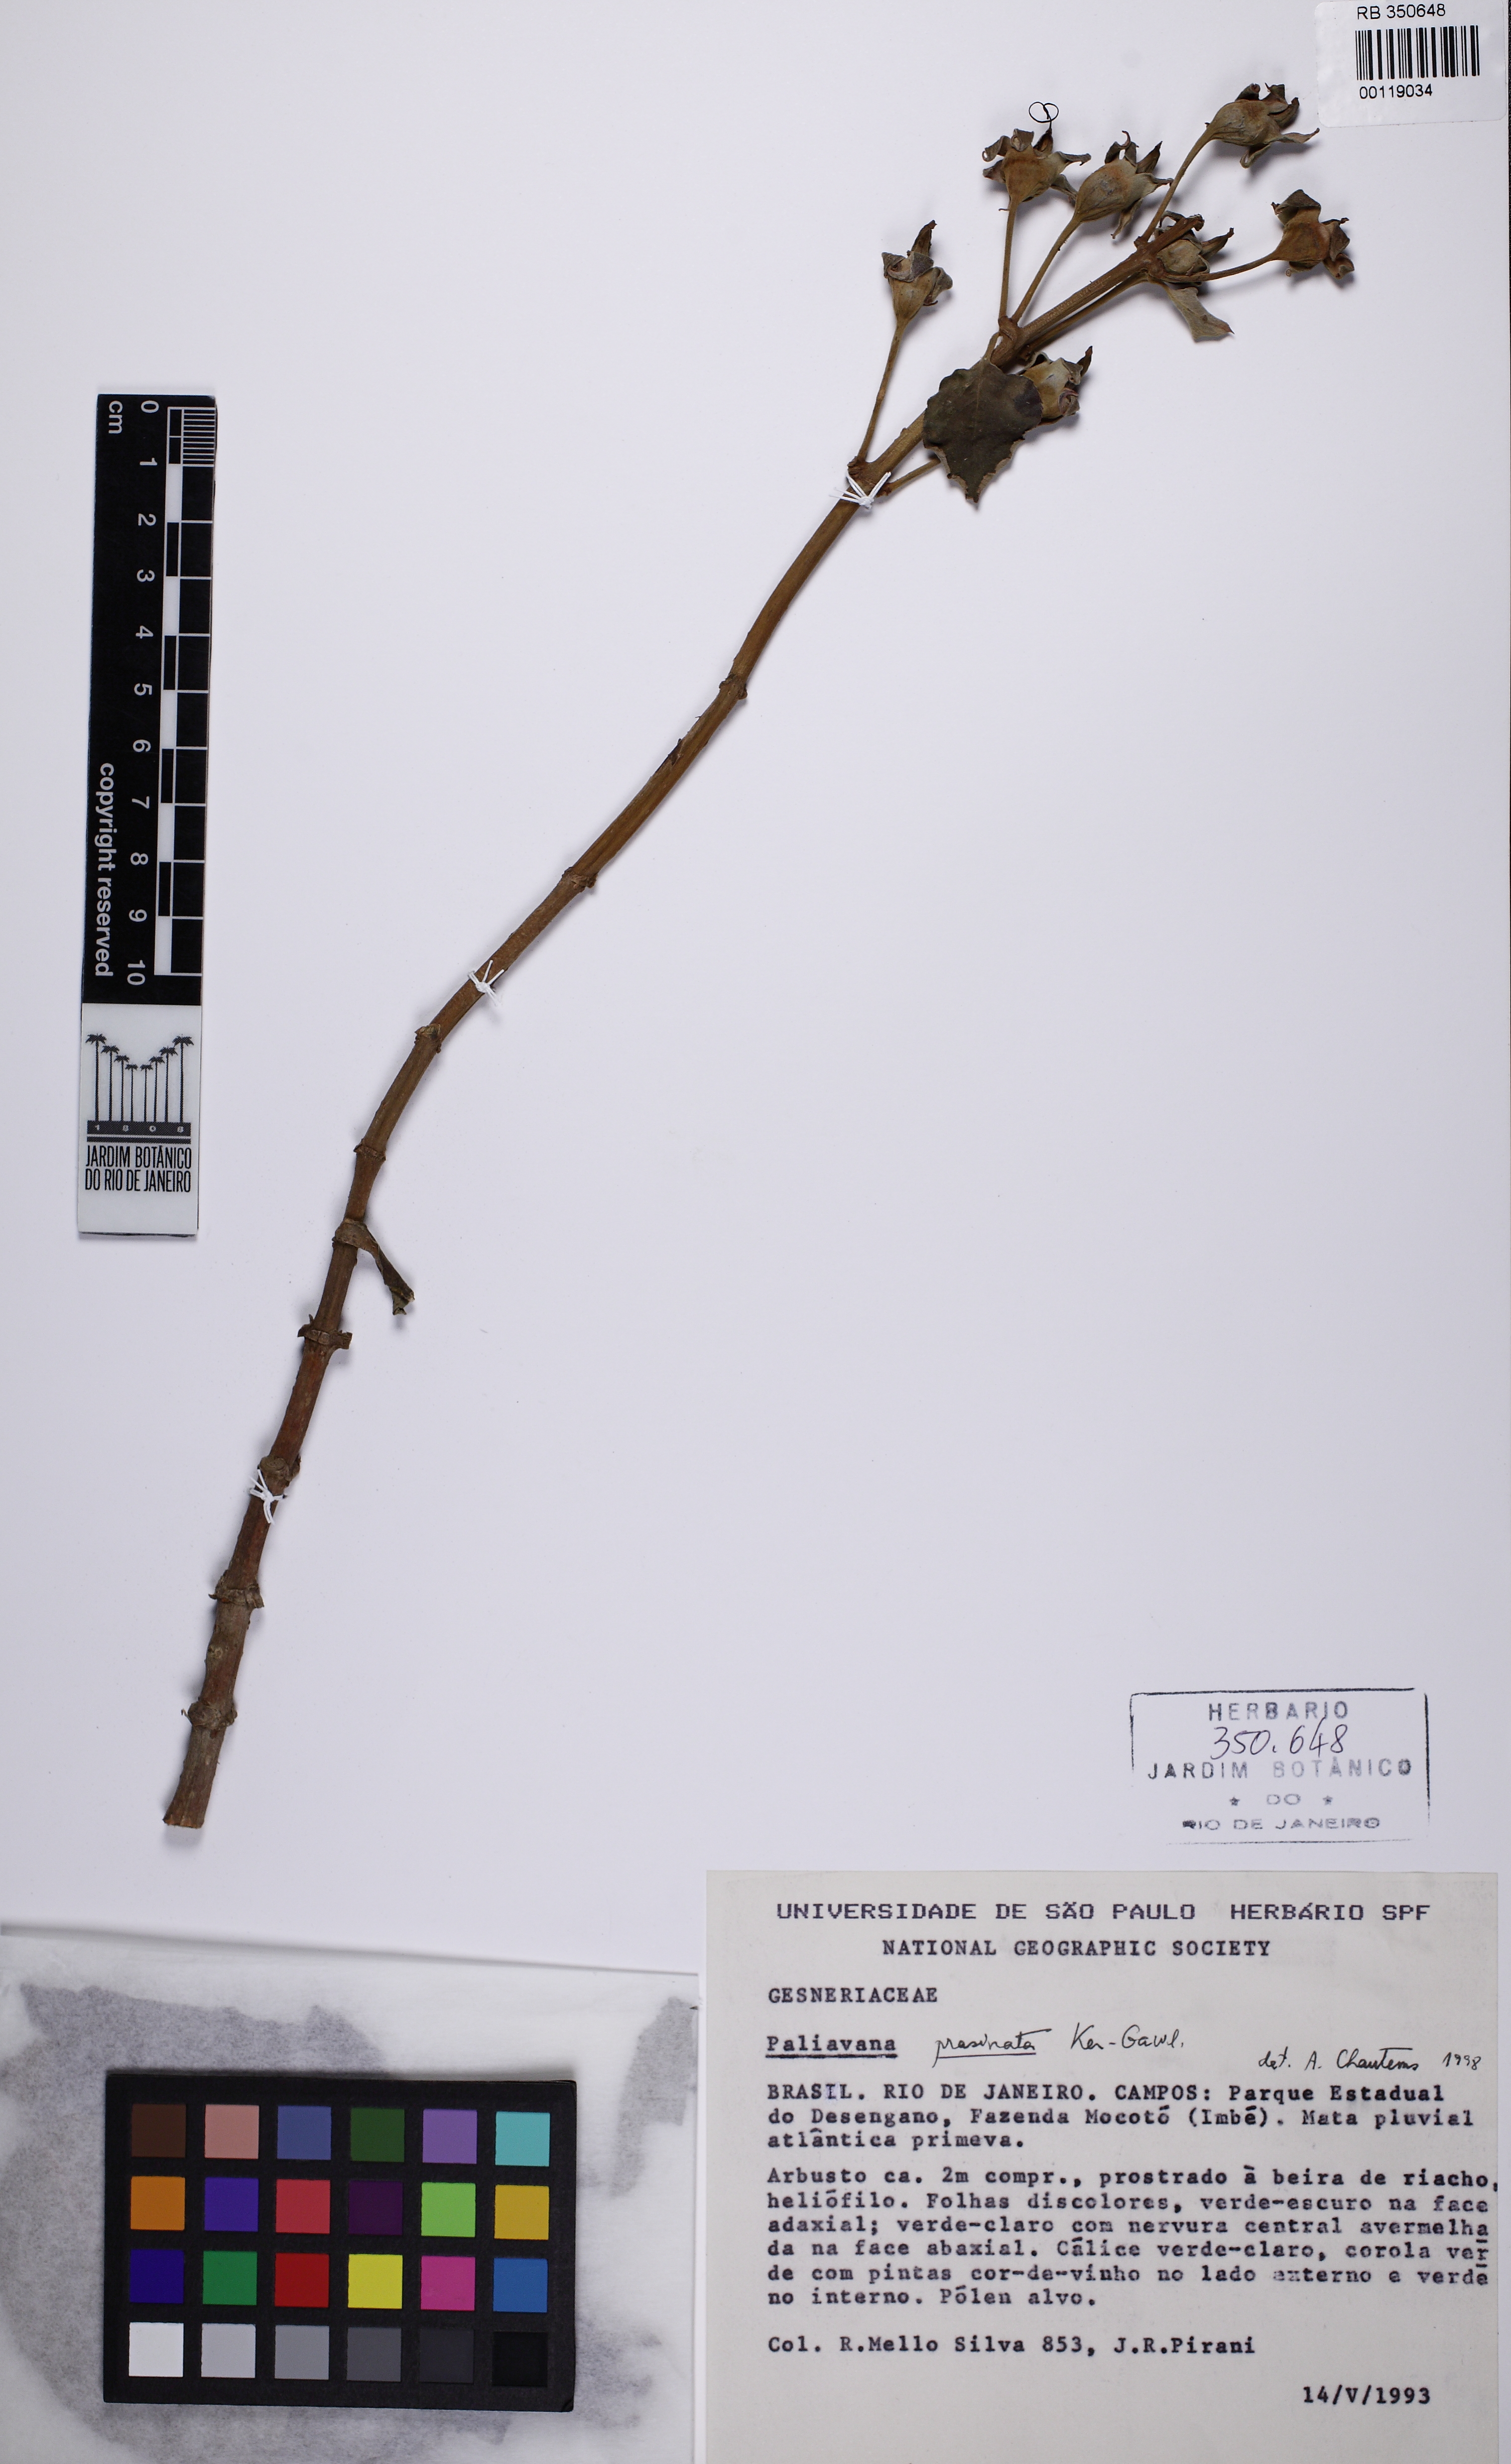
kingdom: Plantae
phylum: Tracheophyta
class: Magnoliopsida
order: Lamiales
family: Gesneriaceae
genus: Paliavana
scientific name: Paliavana prasinata
